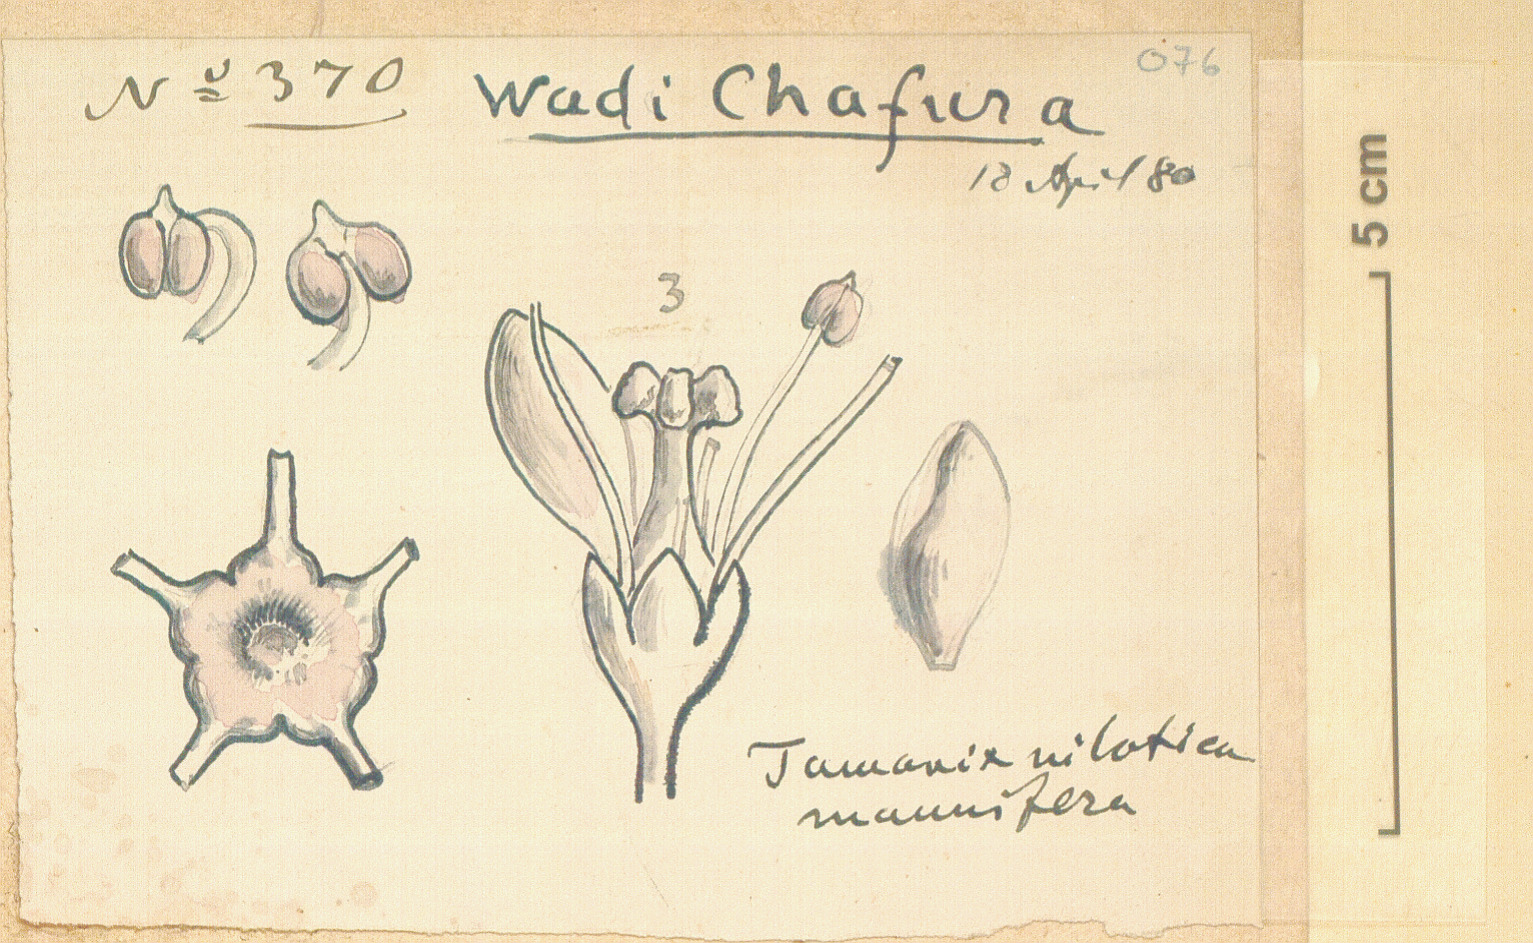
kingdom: Plantae
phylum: Tracheophyta
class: Magnoliopsida
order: Caryophyllales
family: Tamaricaceae
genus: Tamarix
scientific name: Tamarix nilotica
